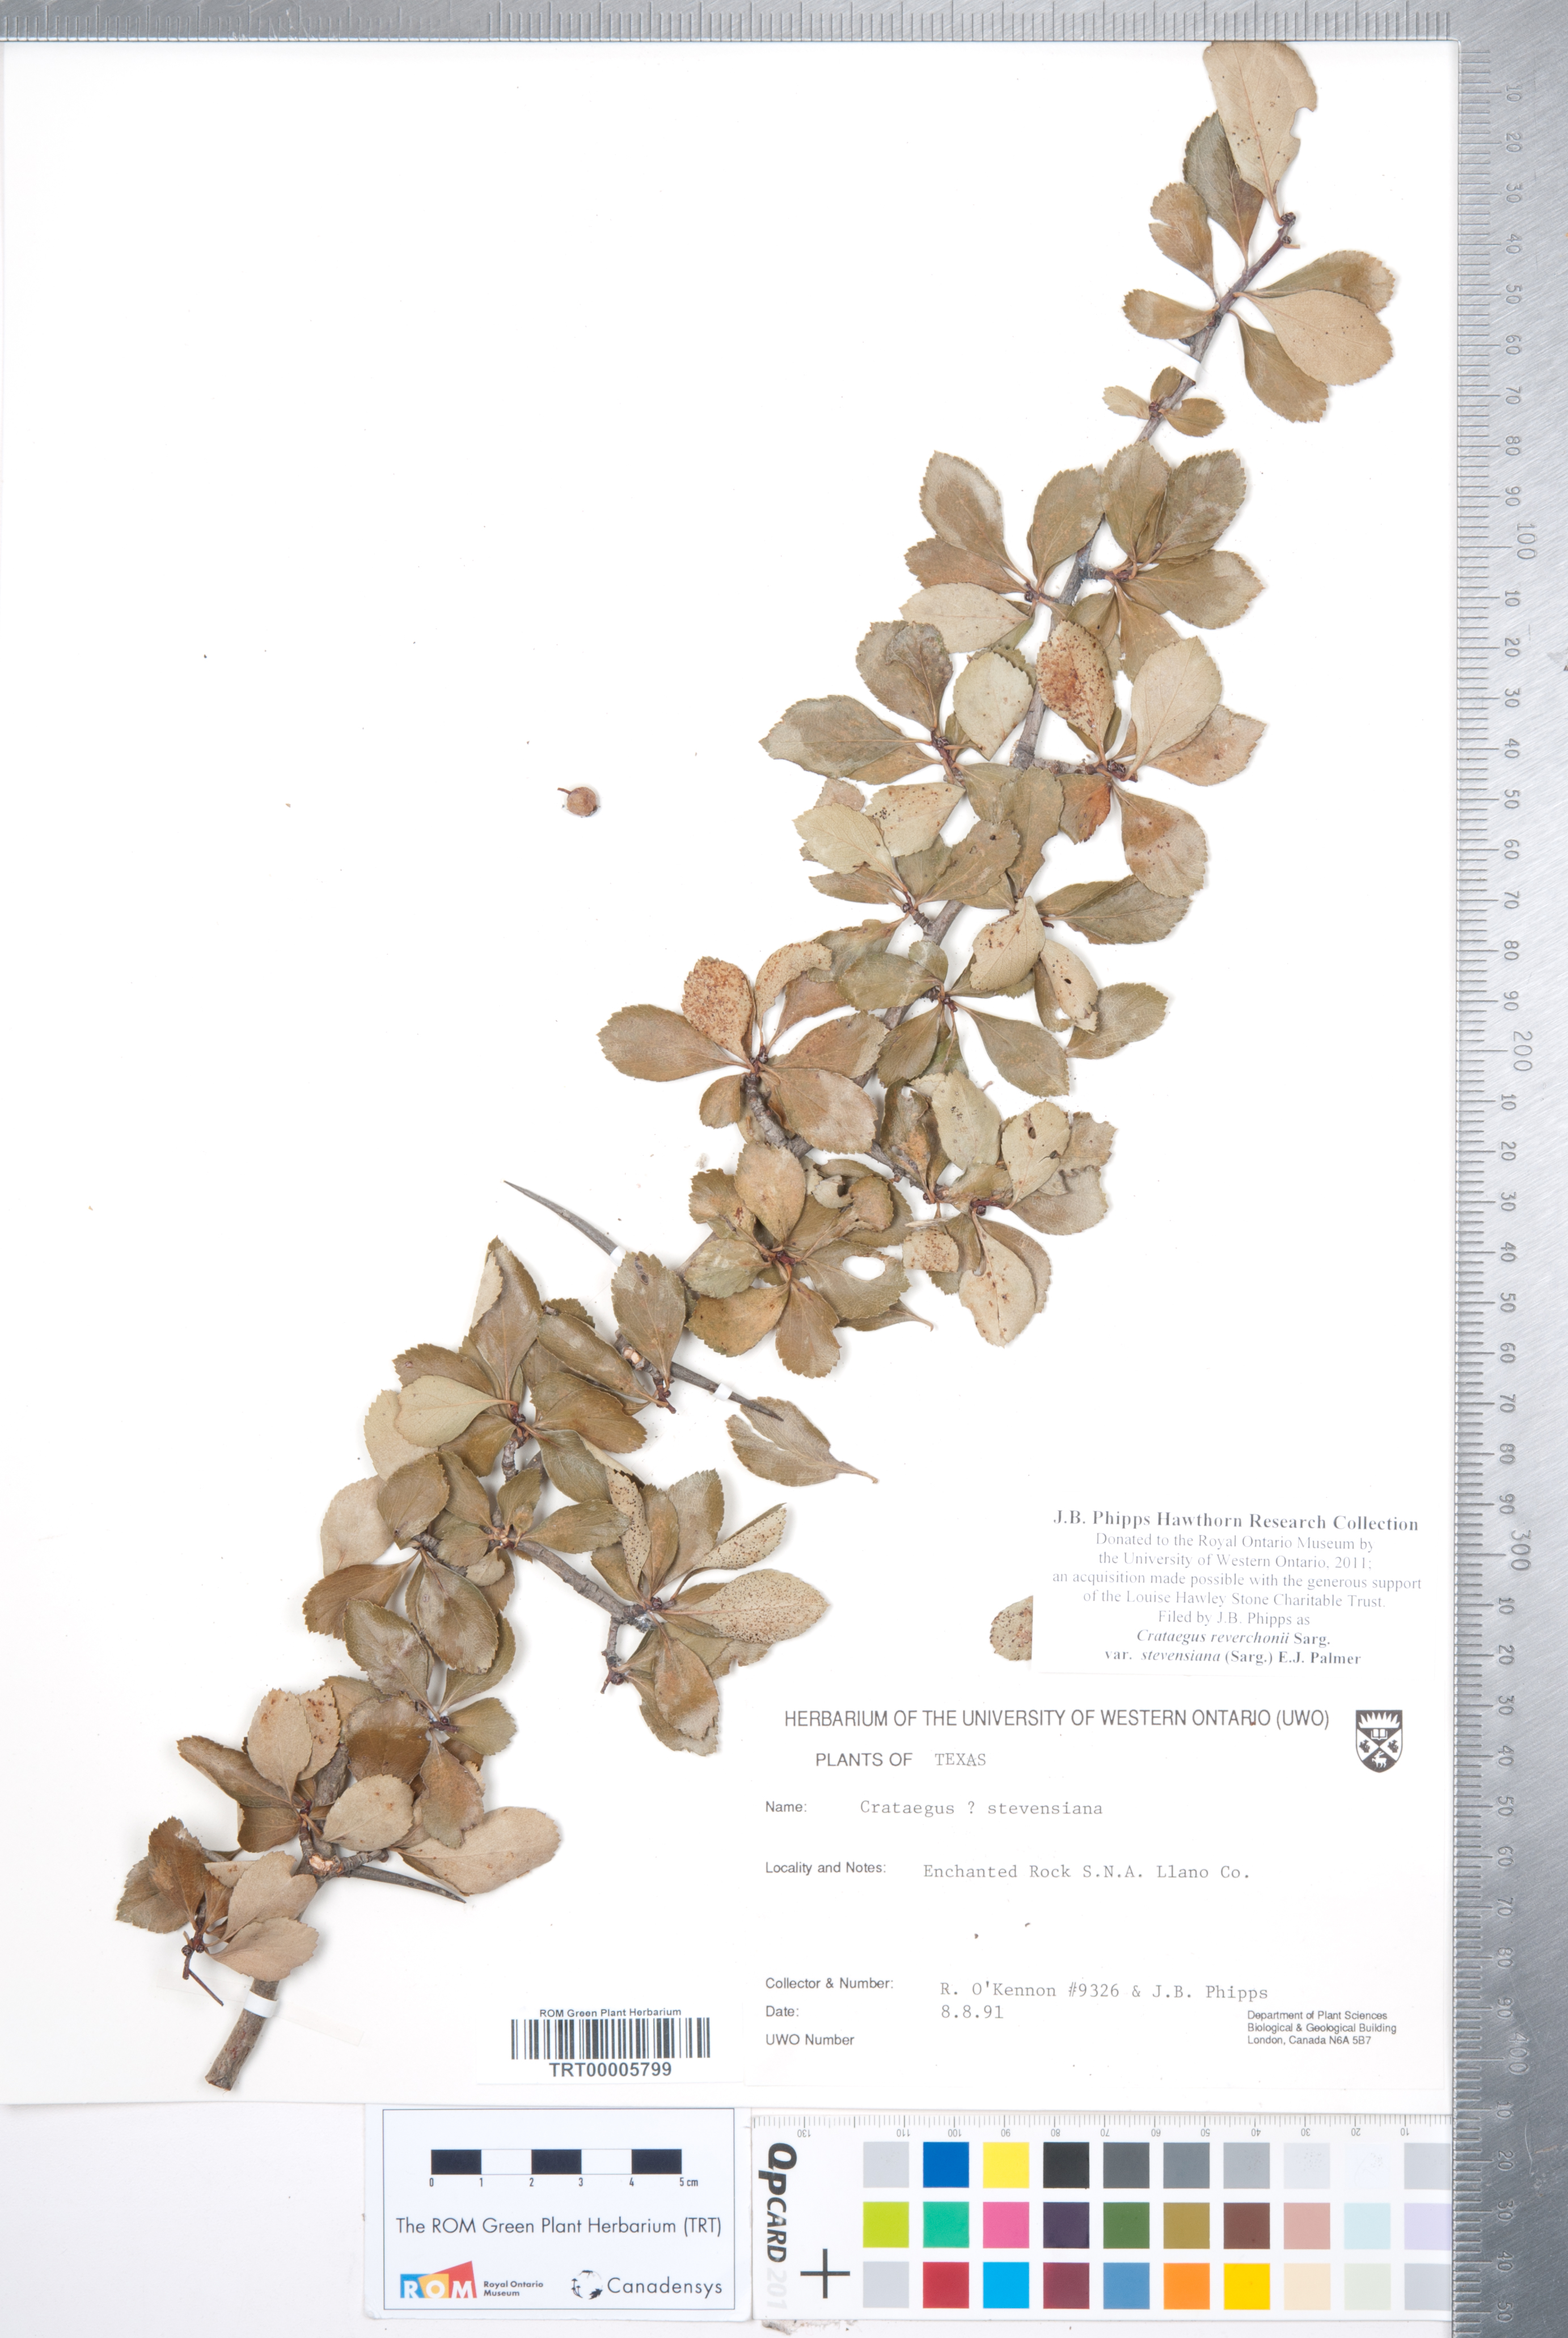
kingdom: Plantae
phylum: Tracheophyta
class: Magnoliopsida
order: Rosales
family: Rosaceae
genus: Crataegus
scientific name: Crataegus reverchonii
